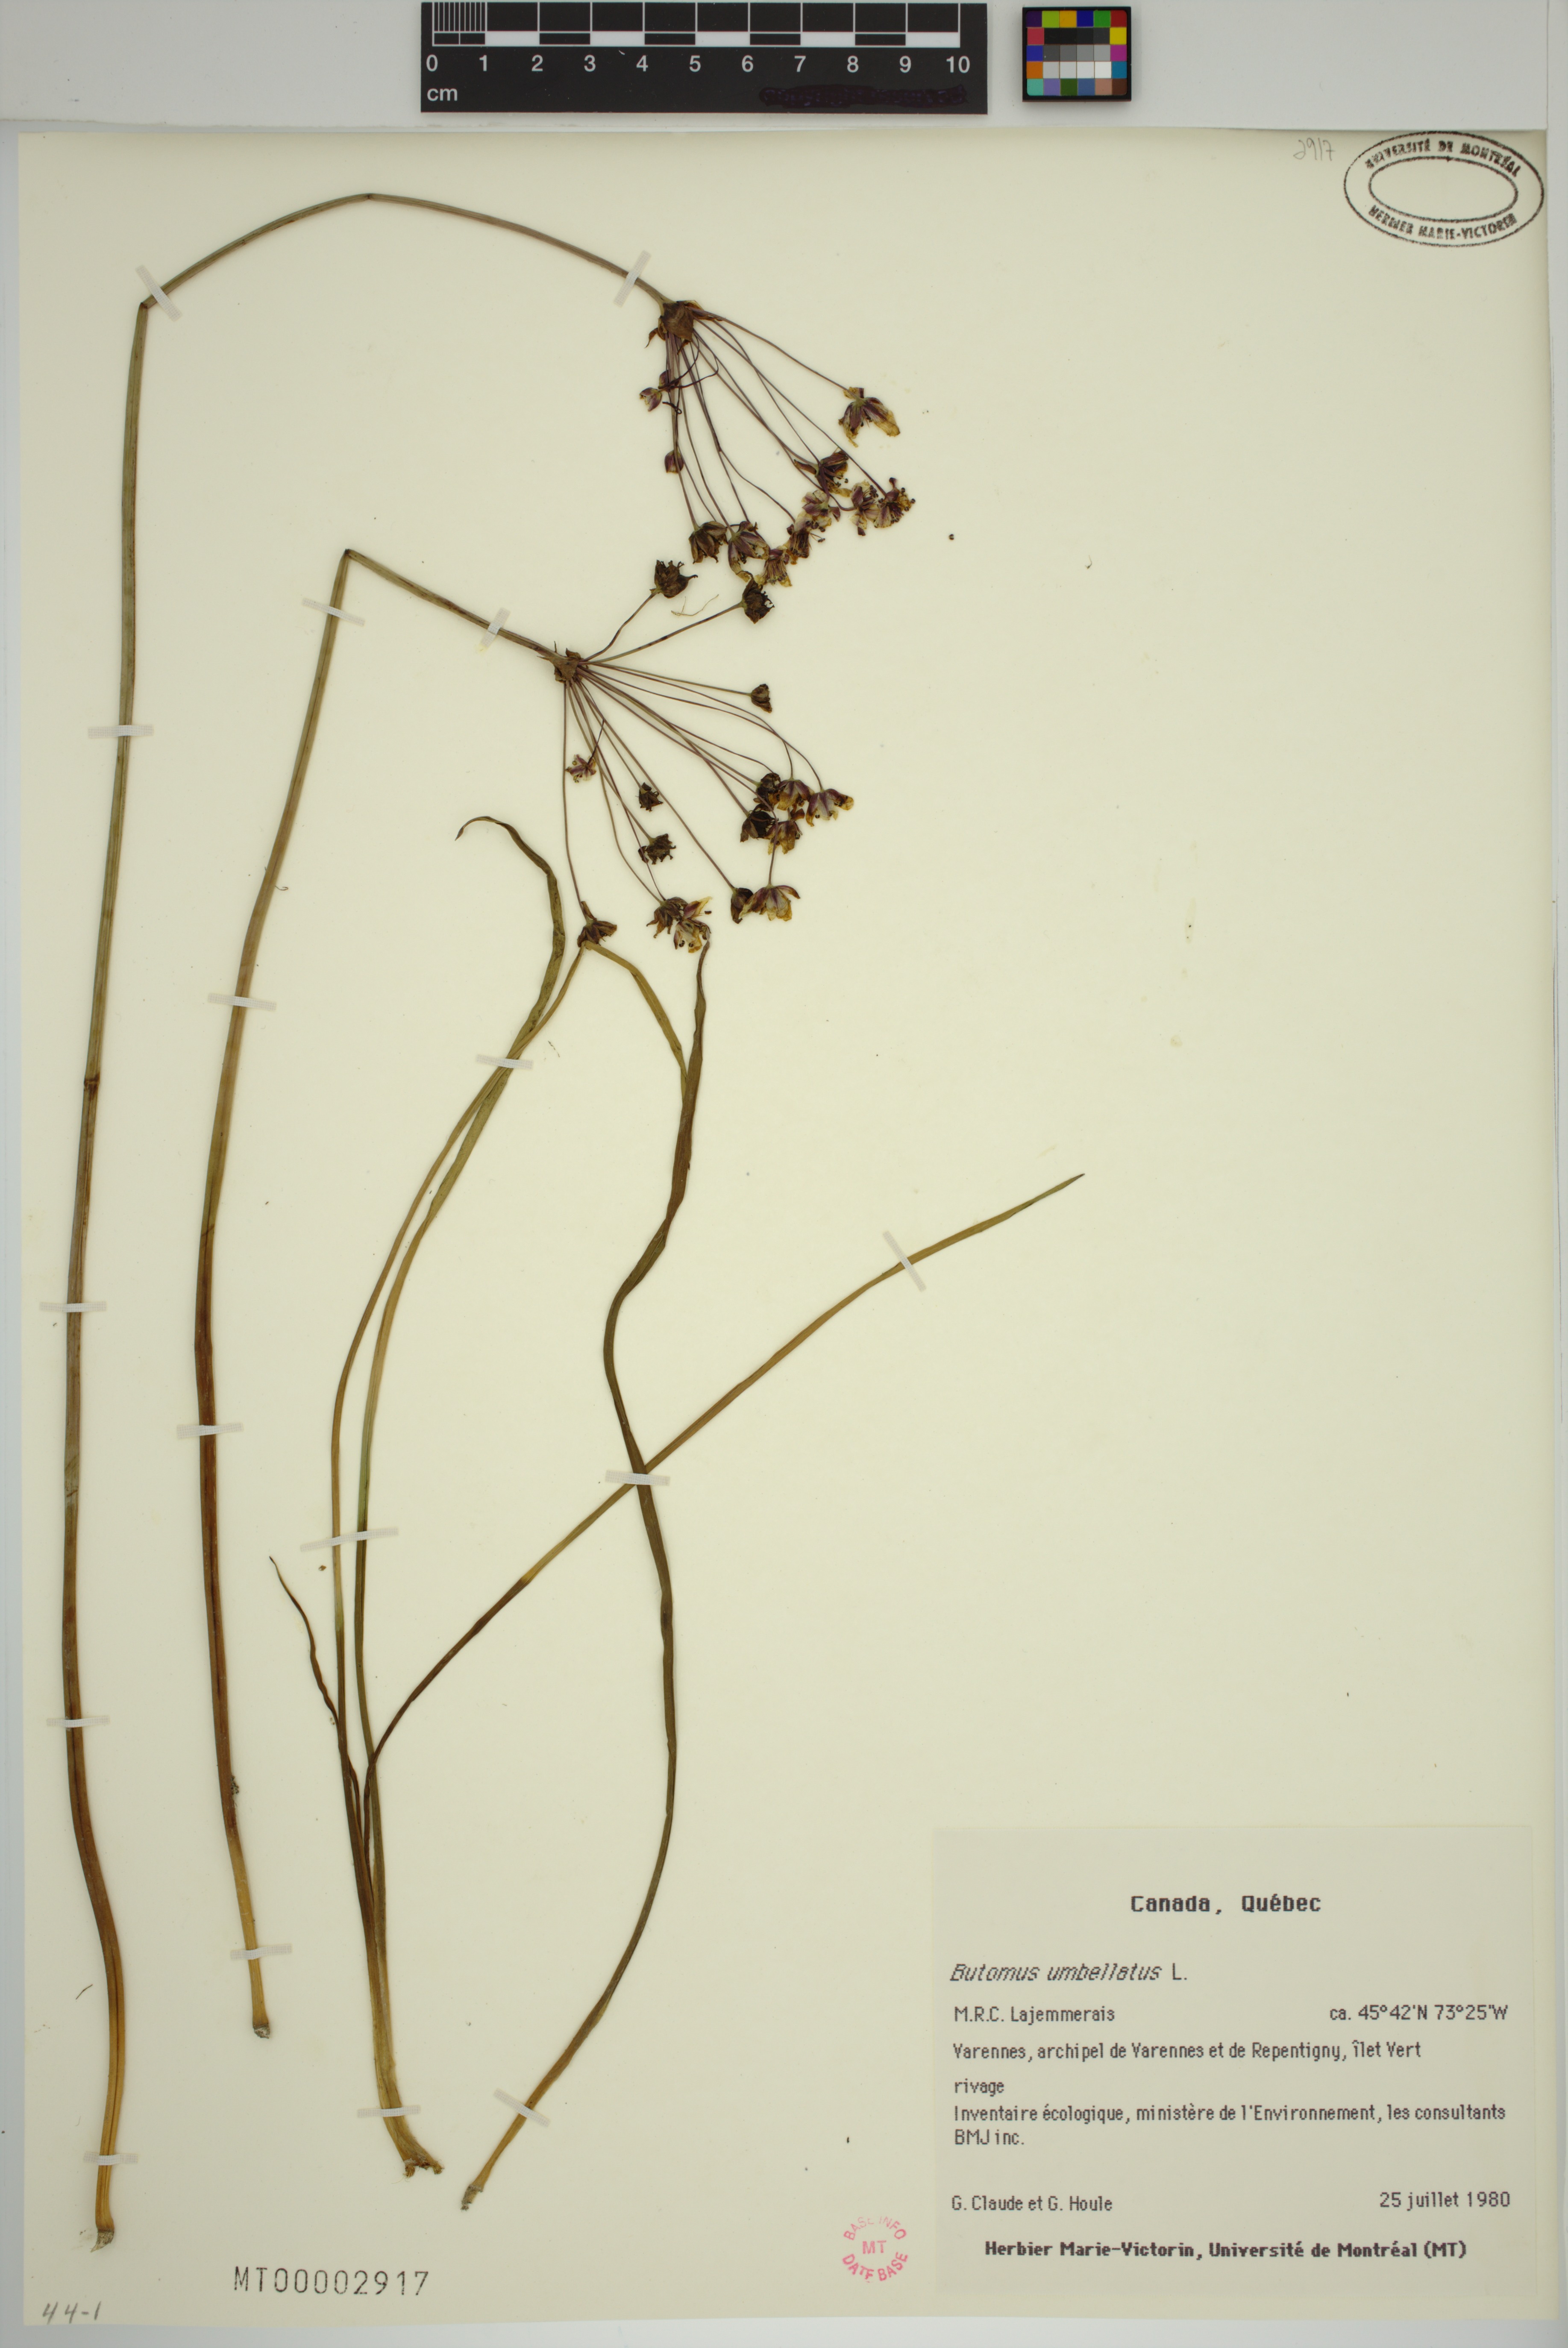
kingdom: Plantae
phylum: Tracheophyta
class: Liliopsida
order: Alismatales
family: Butomaceae
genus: Butomus
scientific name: Butomus umbellatus
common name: Flowering-rush
